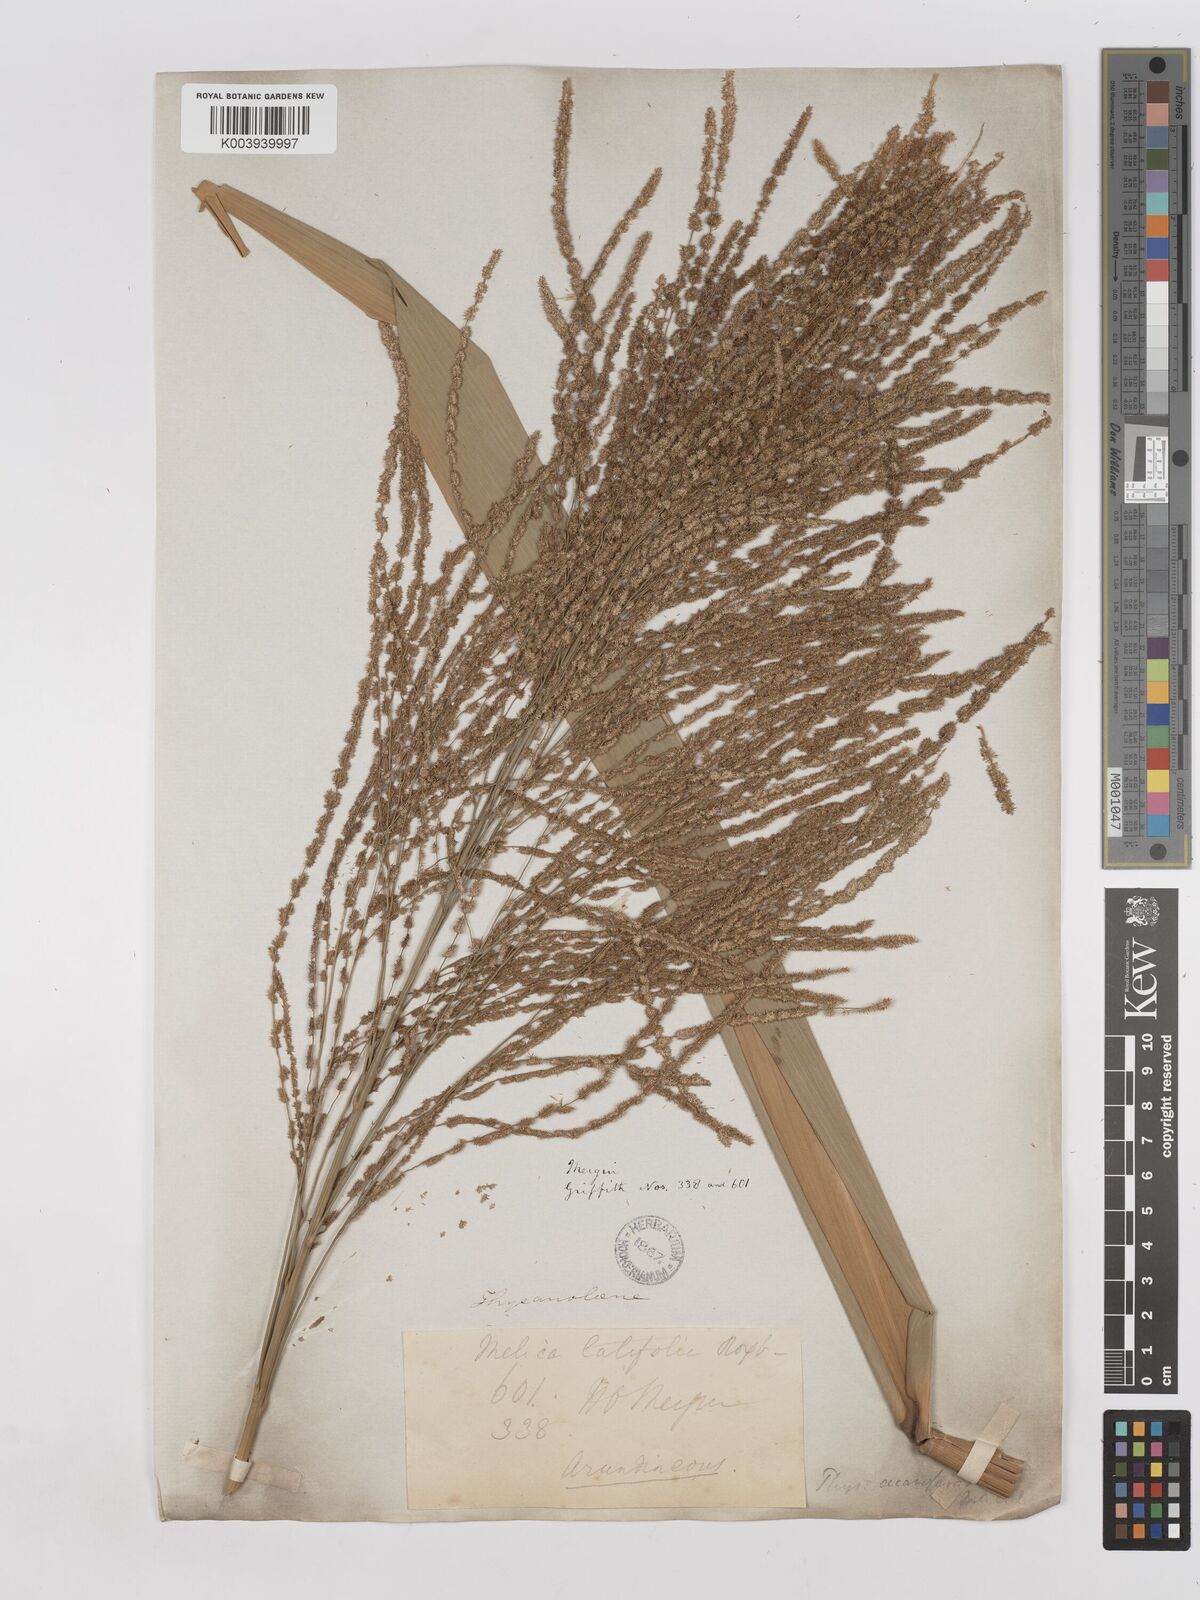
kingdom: Plantae
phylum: Tracheophyta
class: Liliopsida
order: Poales
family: Poaceae
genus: Thysanolaena
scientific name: Thysanolaena latifolia
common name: Tiger grass
